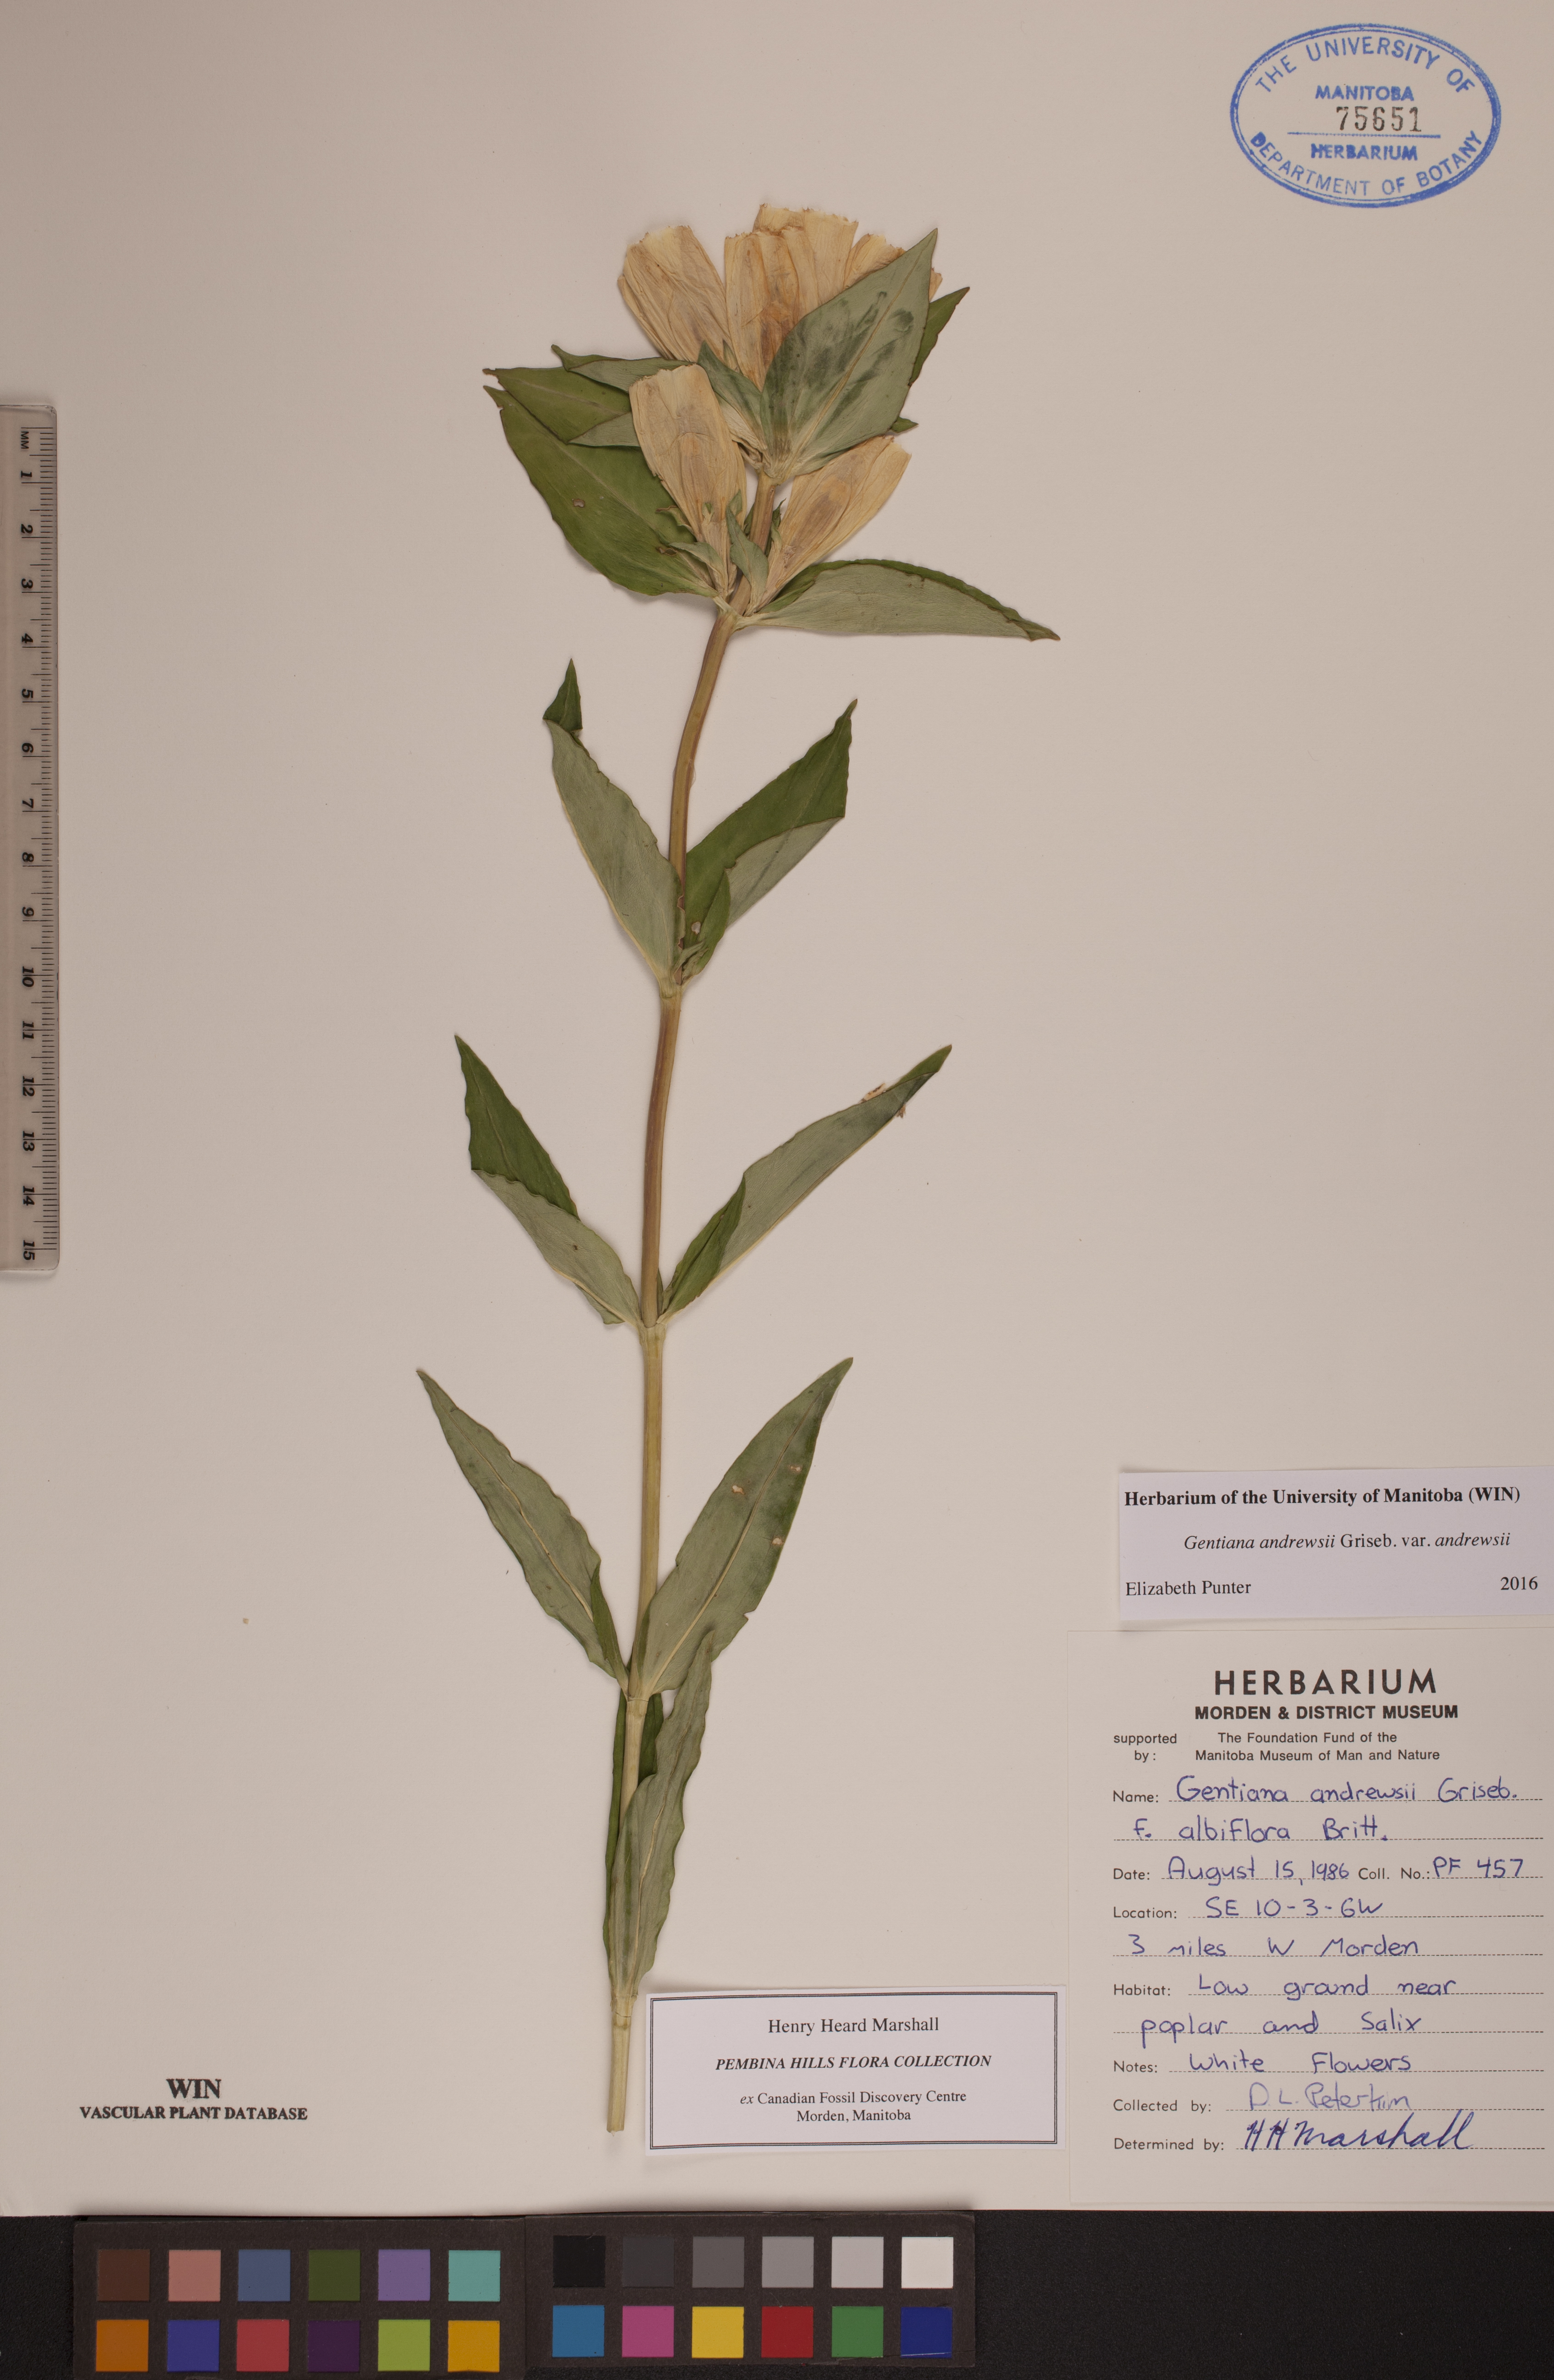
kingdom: Plantae
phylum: Tracheophyta
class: Magnoliopsida
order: Gentianales
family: Gentianaceae
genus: Gentiana
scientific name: Gentiana andrewsii
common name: Bottle gentian
